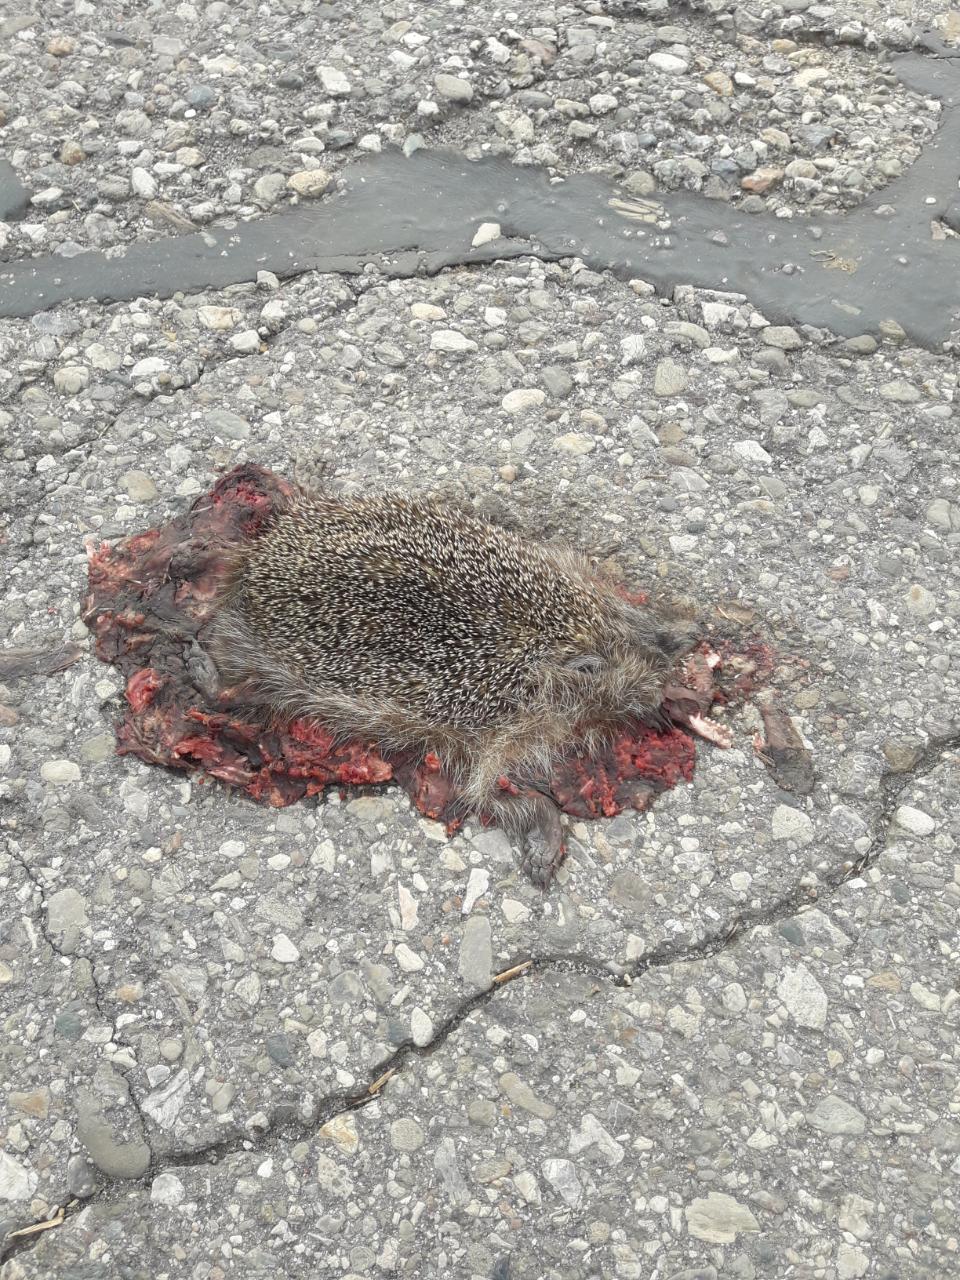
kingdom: Animalia
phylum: Chordata
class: Mammalia
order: Erinaceomorpha
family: Erinaceidae
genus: Erinaceus
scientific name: Erinaceus
